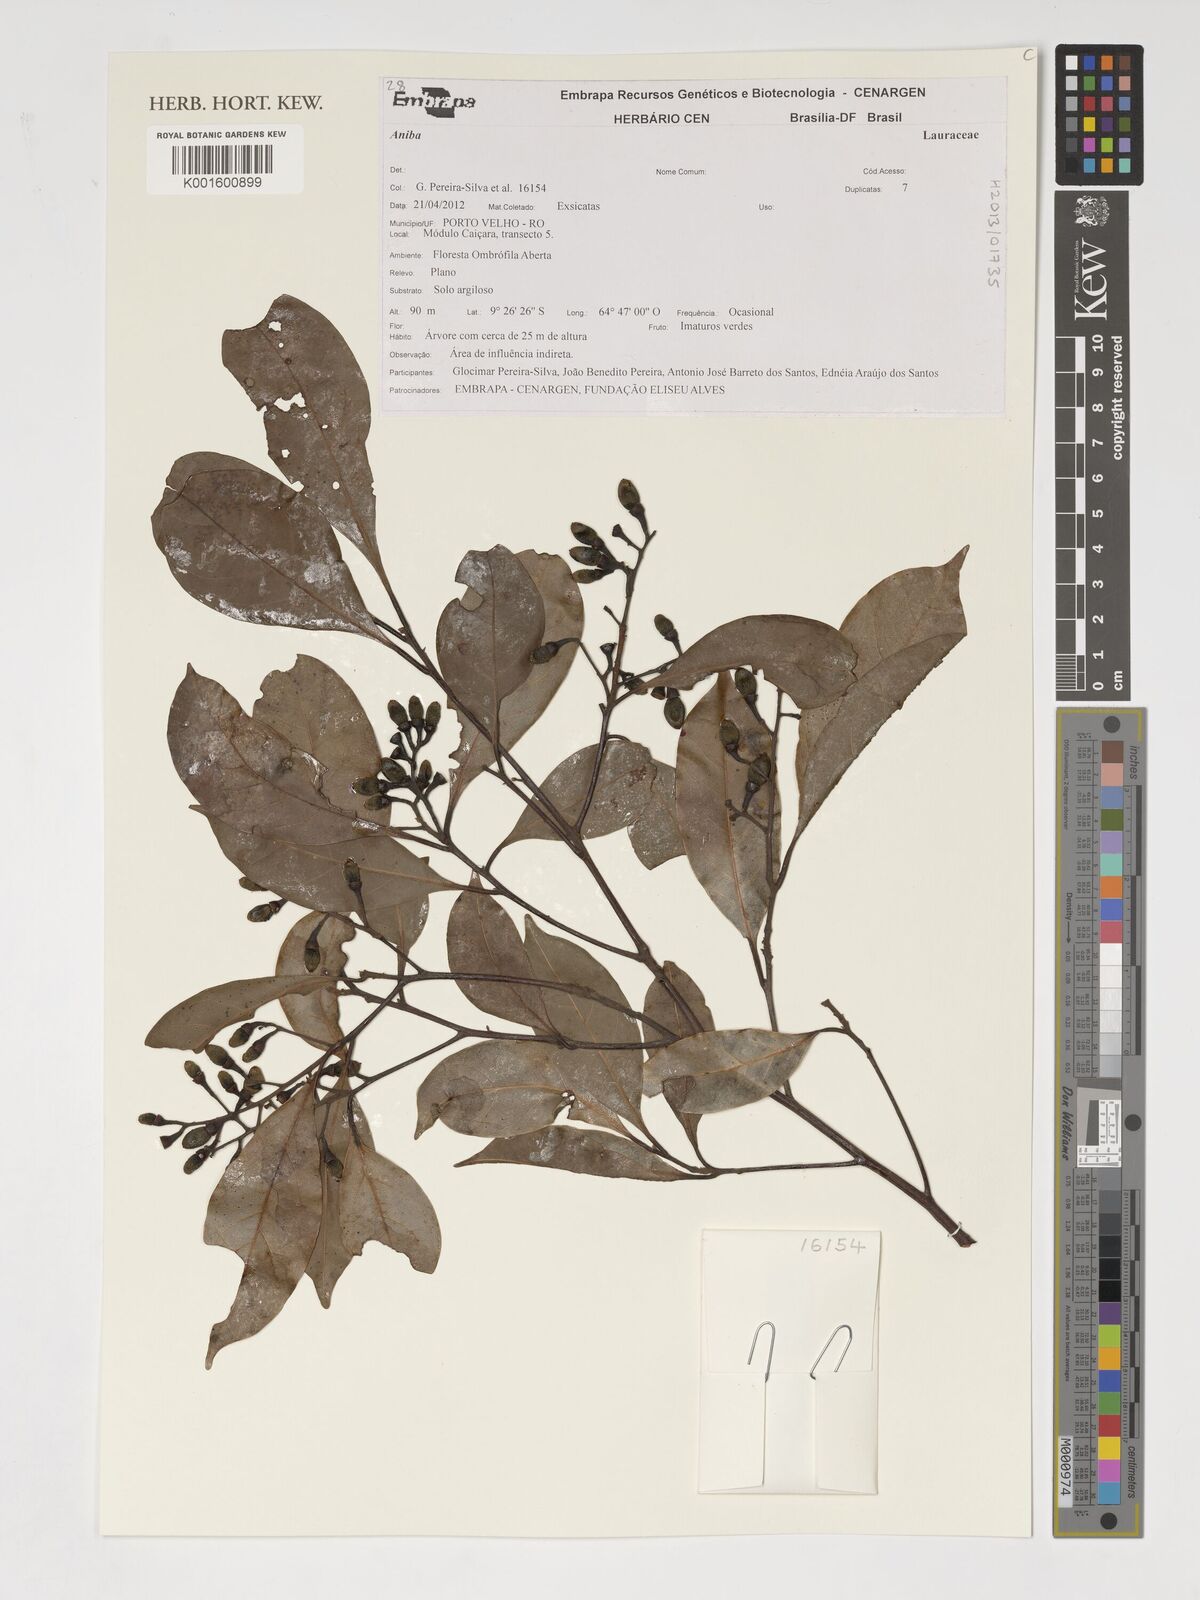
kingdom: Plantae
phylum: Tracheophyta
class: Magnoliopsida
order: Laurales
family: Lauraceae
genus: Aniba
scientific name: Aniba
